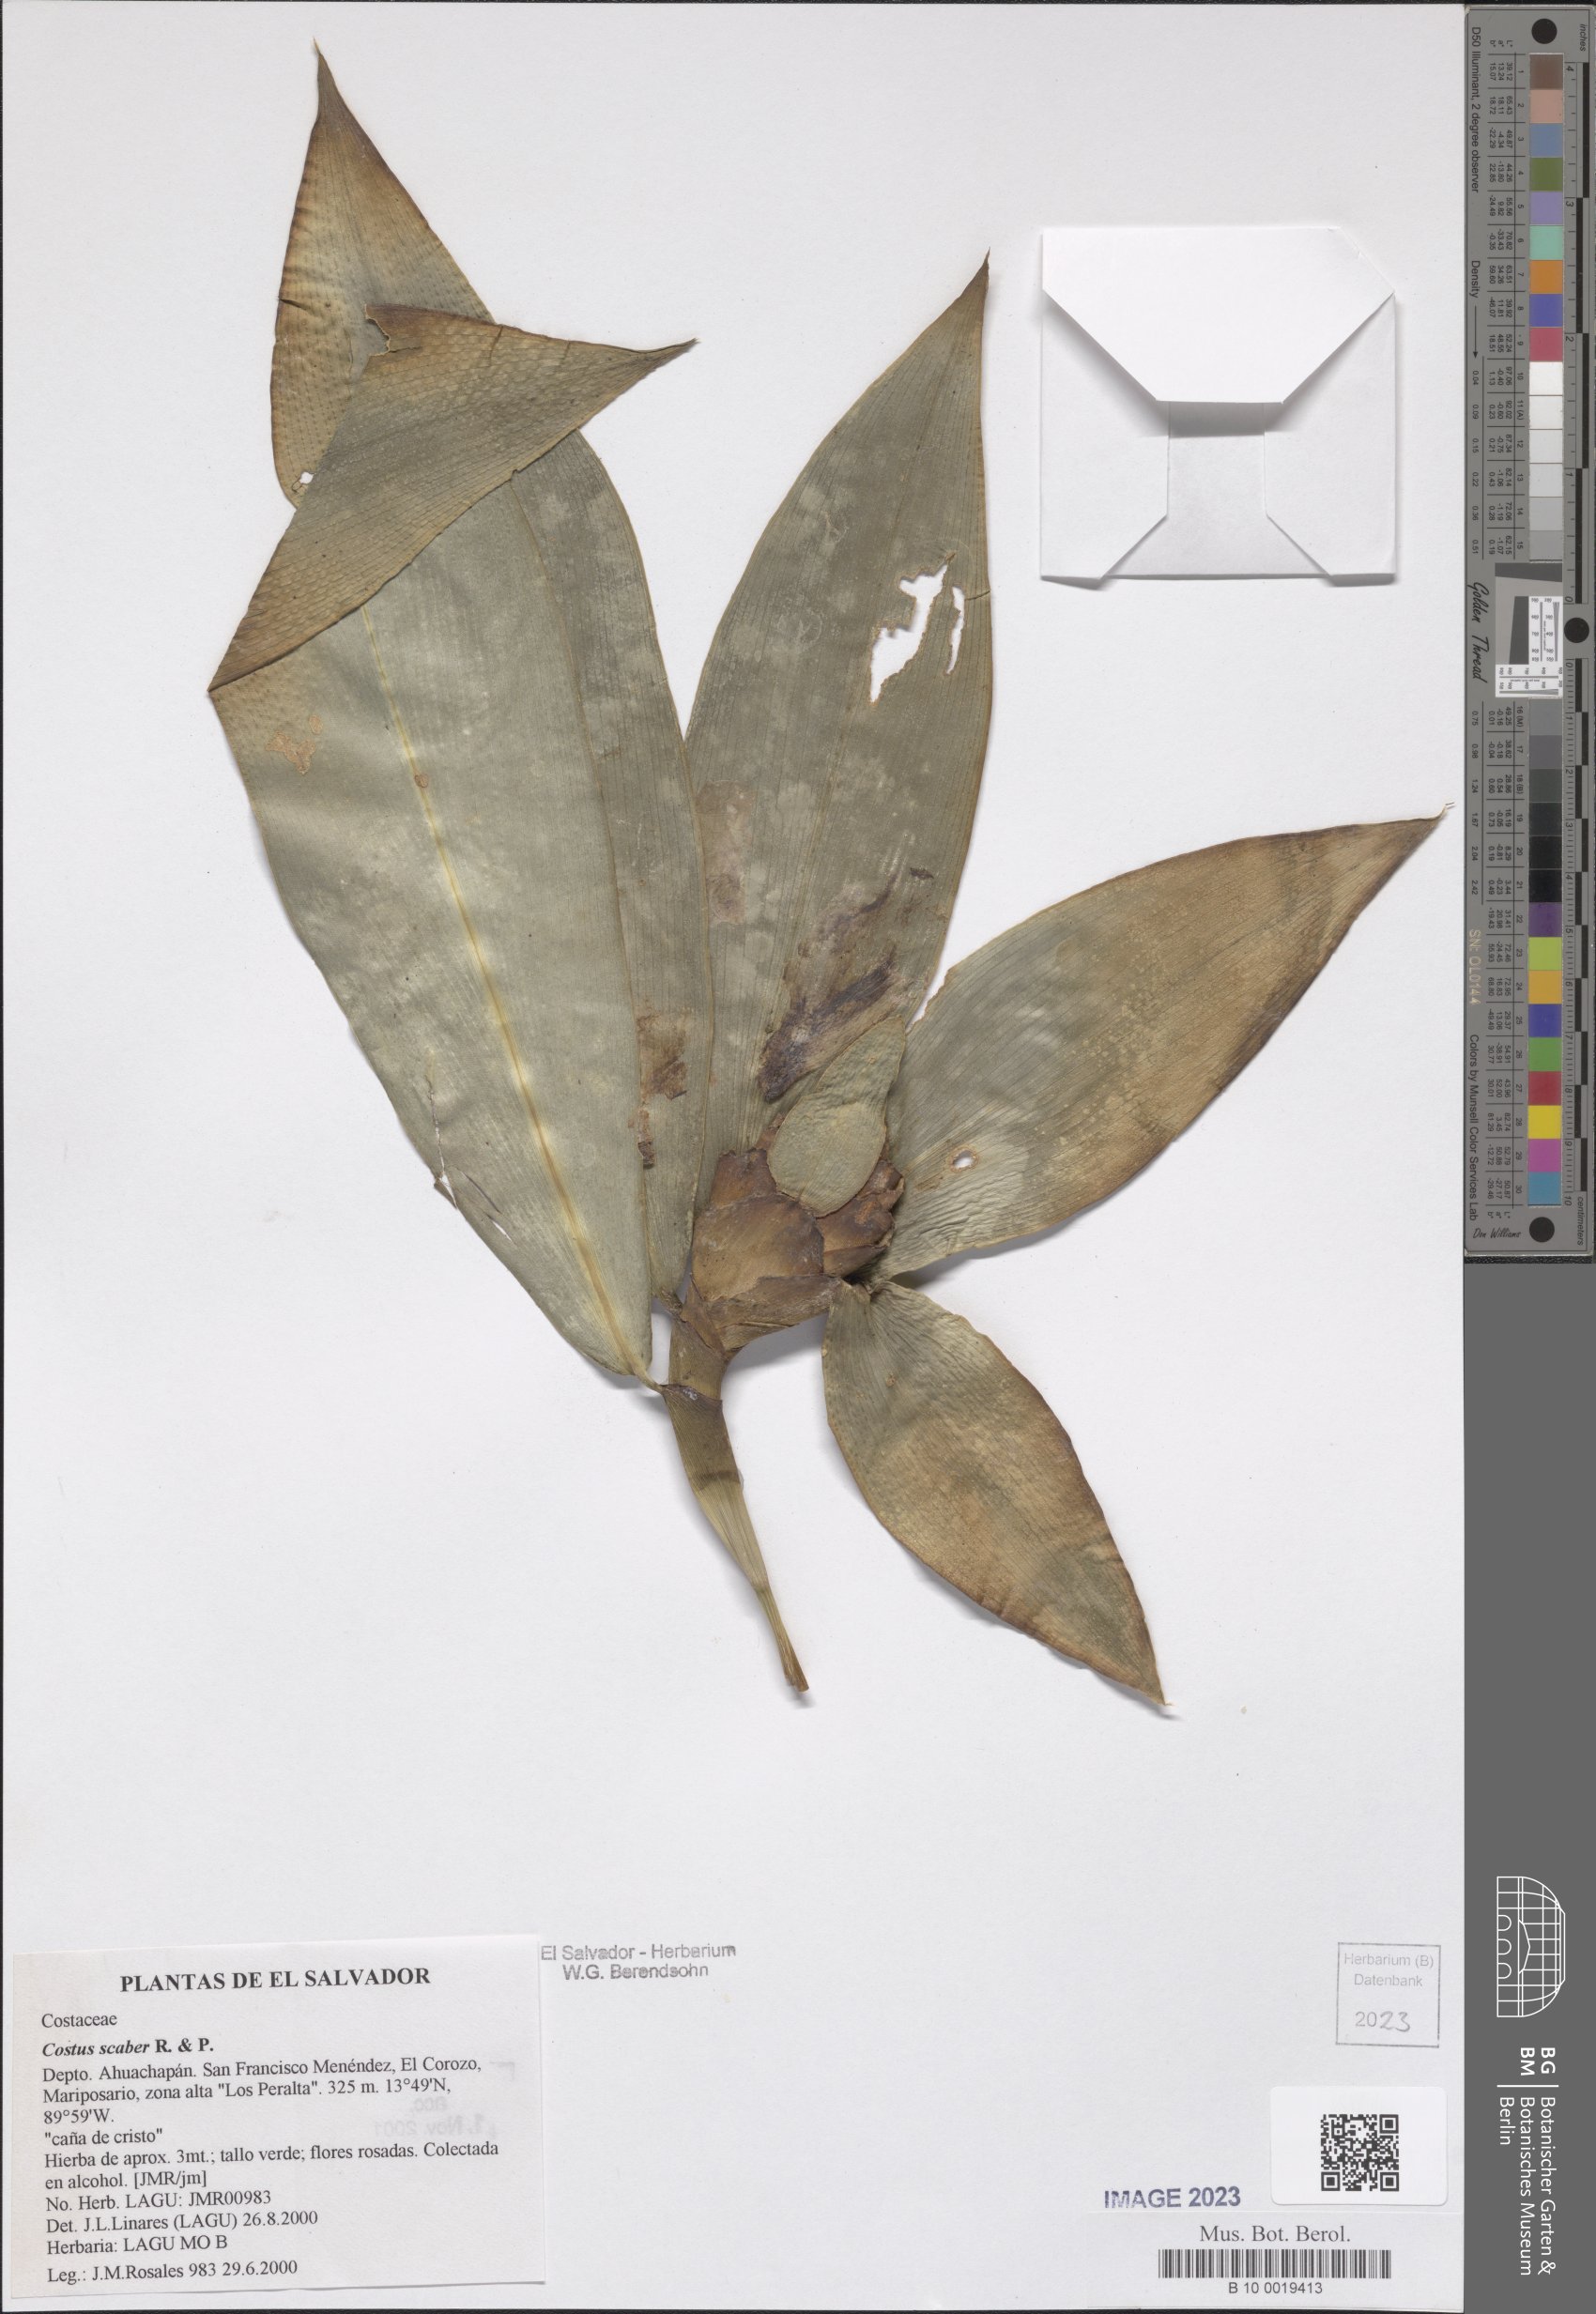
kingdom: Plantae
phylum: Tracheophyta
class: Liliopsida
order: Zingiberales
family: Costaceae
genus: Costus
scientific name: Costus scaber
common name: Spiral head ginger
